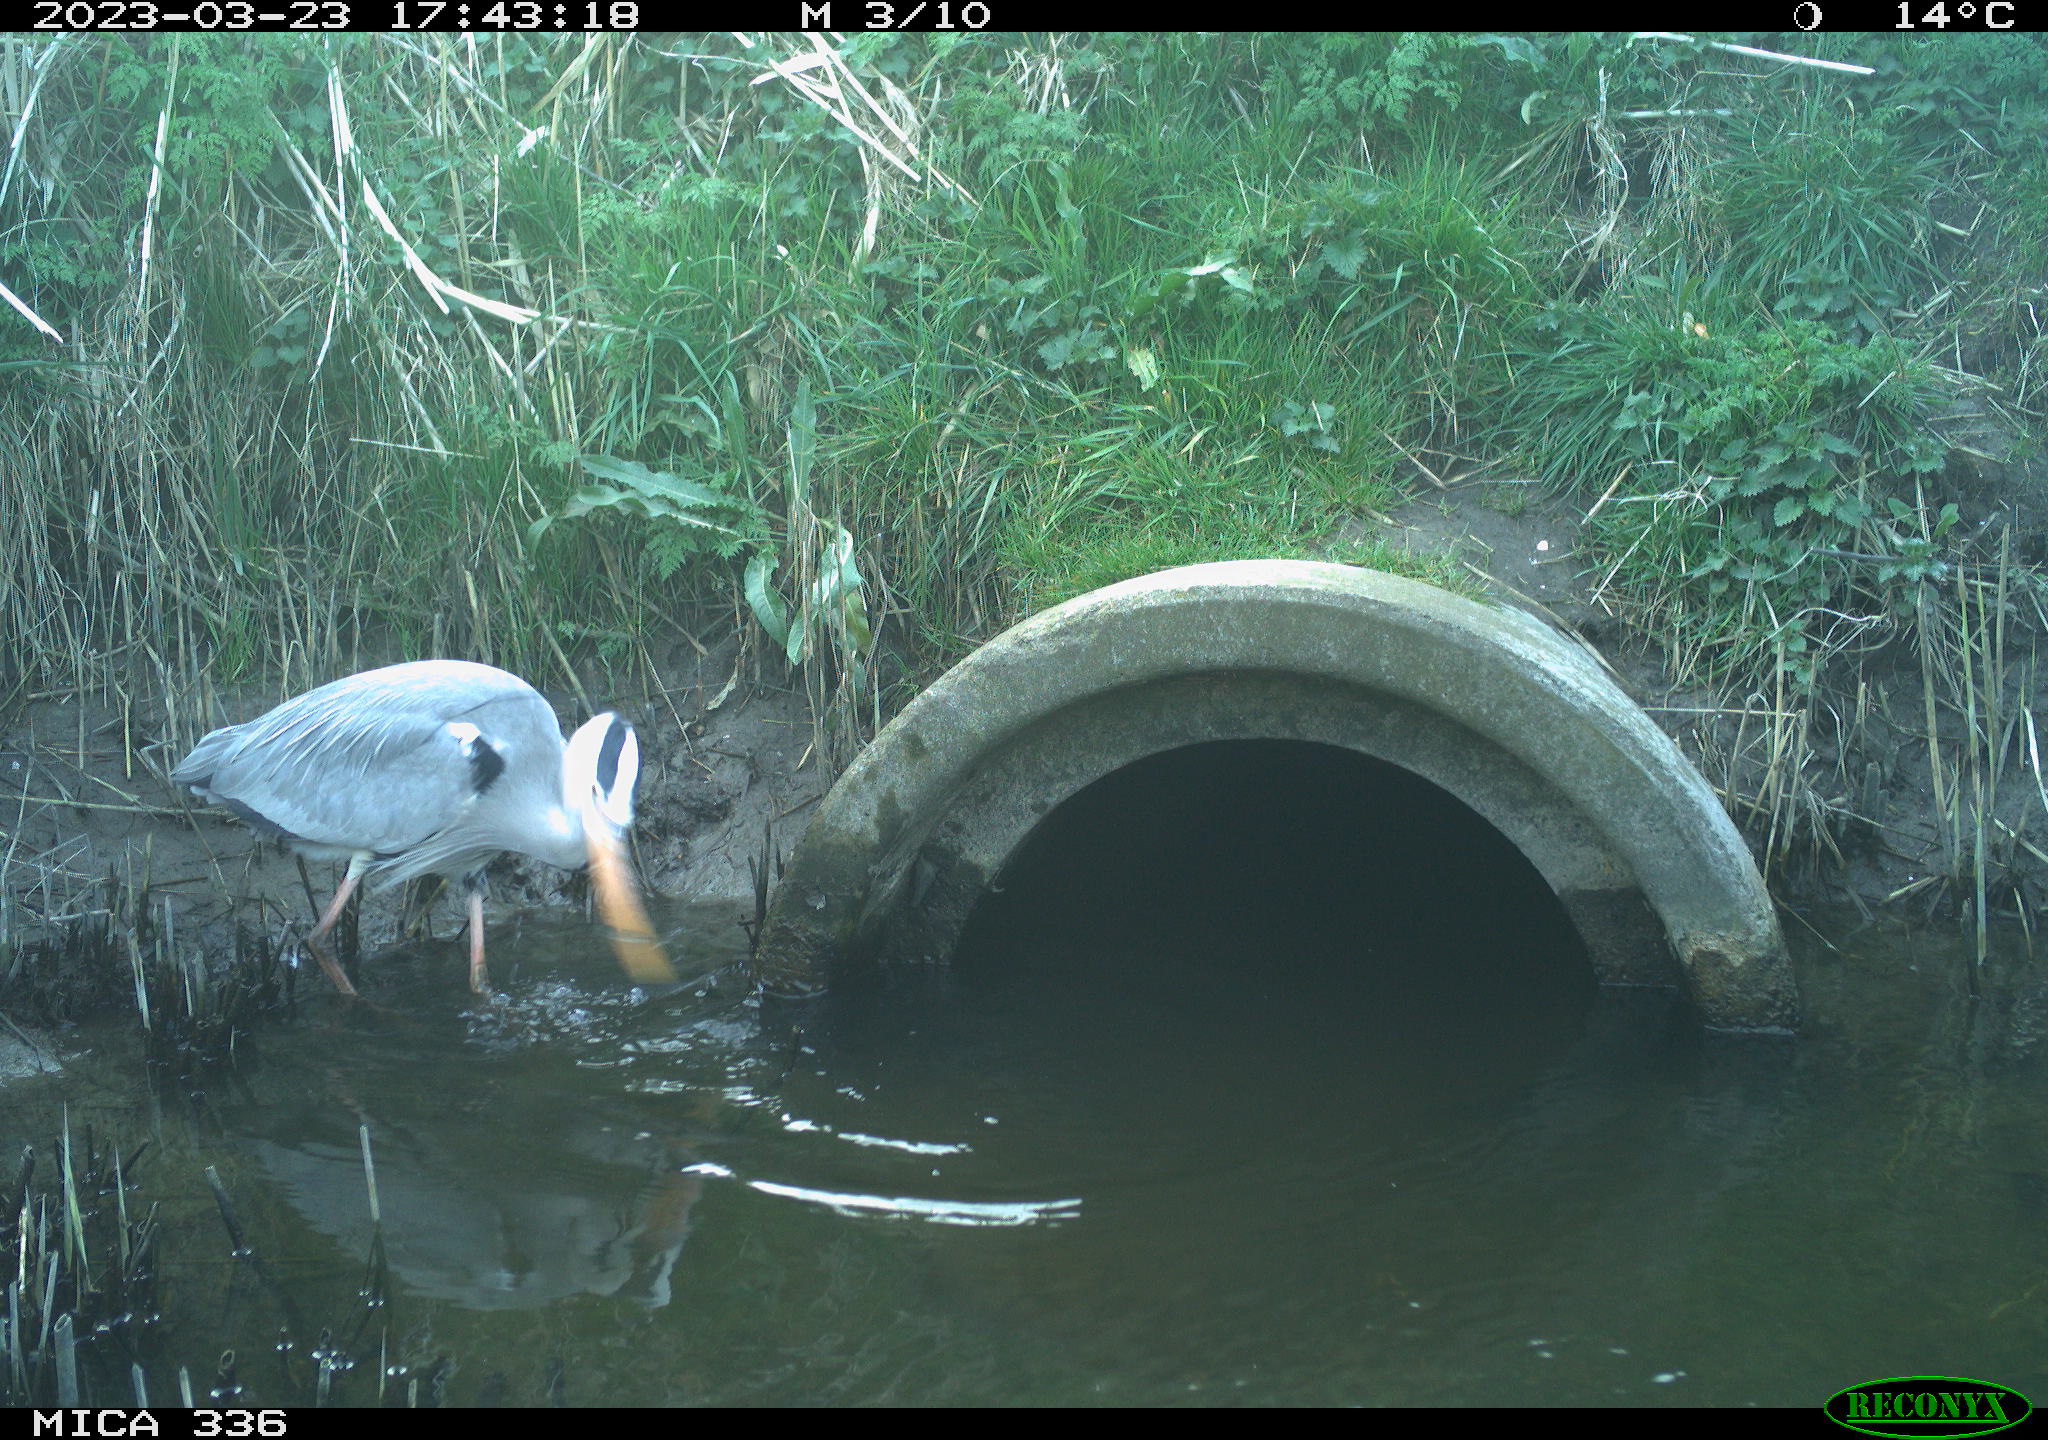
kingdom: Animalia
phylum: Chordata
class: Aves
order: Pelecaniformes
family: Ardeidae
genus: Ardea
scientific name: Ardea
